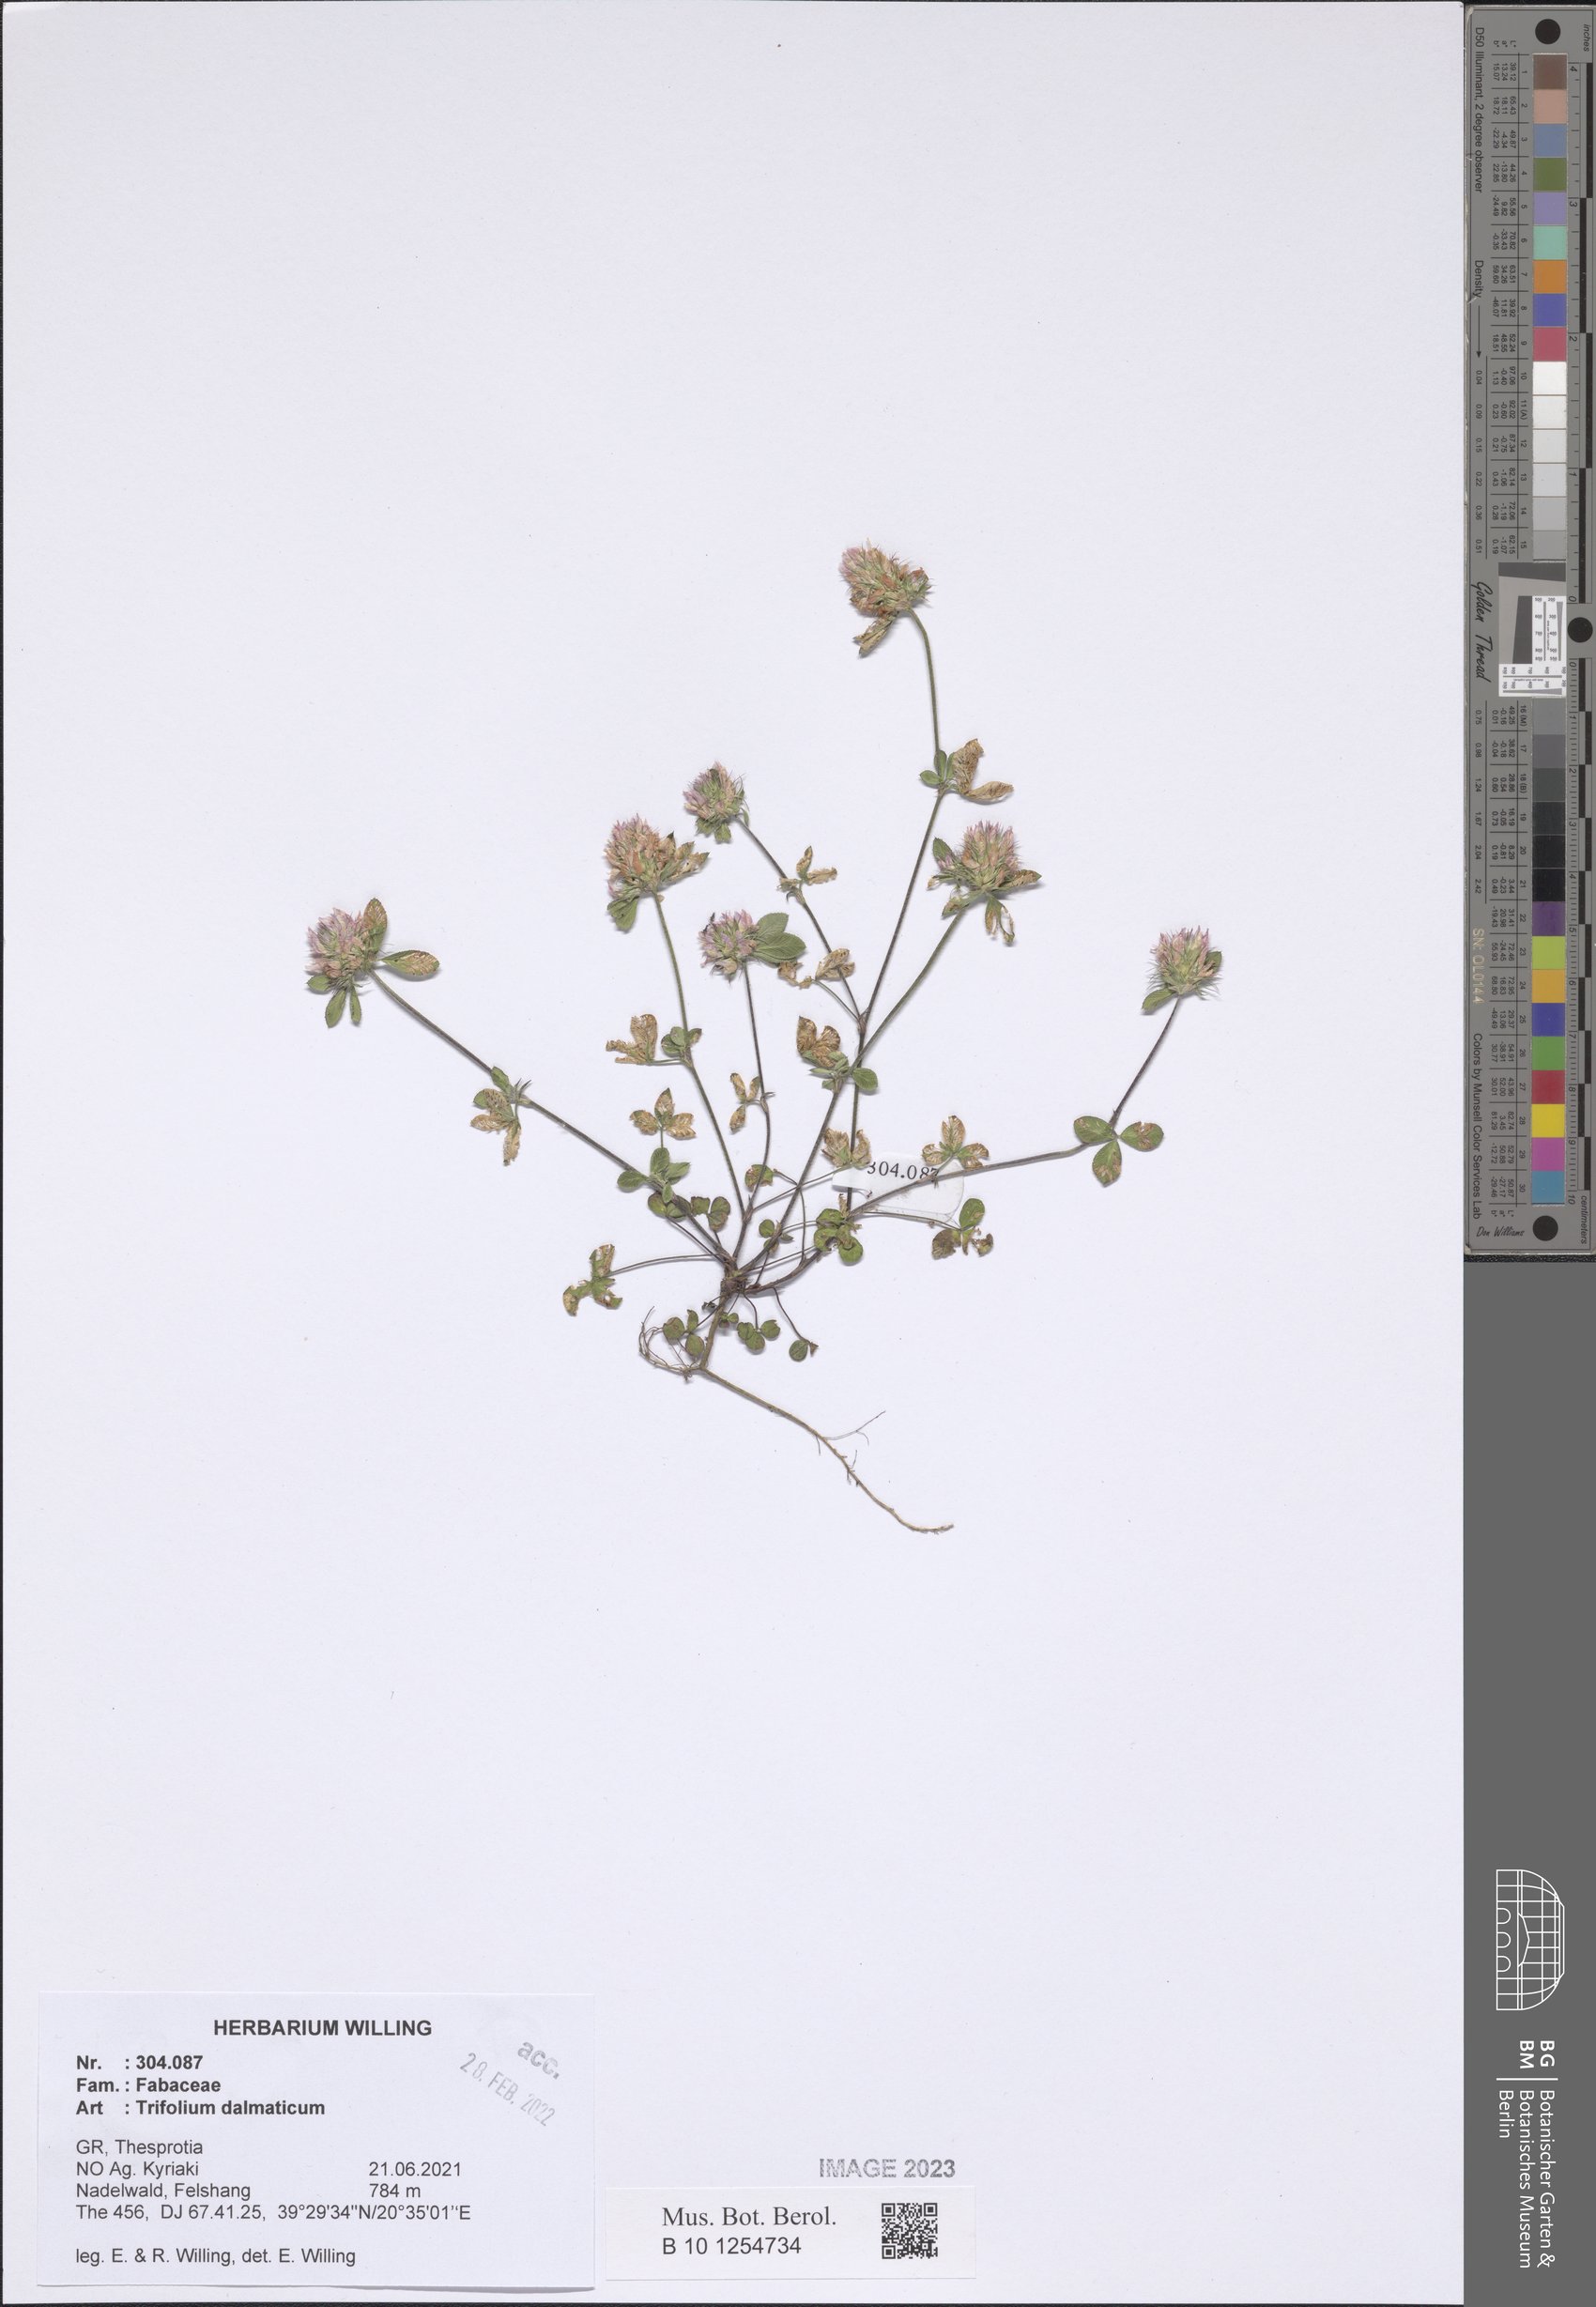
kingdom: Plantae
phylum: Tracheophyta
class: Magnoliopsida
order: Fabales
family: Fabaceae
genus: Trifolium
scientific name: Trifolium dalmaticum
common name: Dalmatian clover
